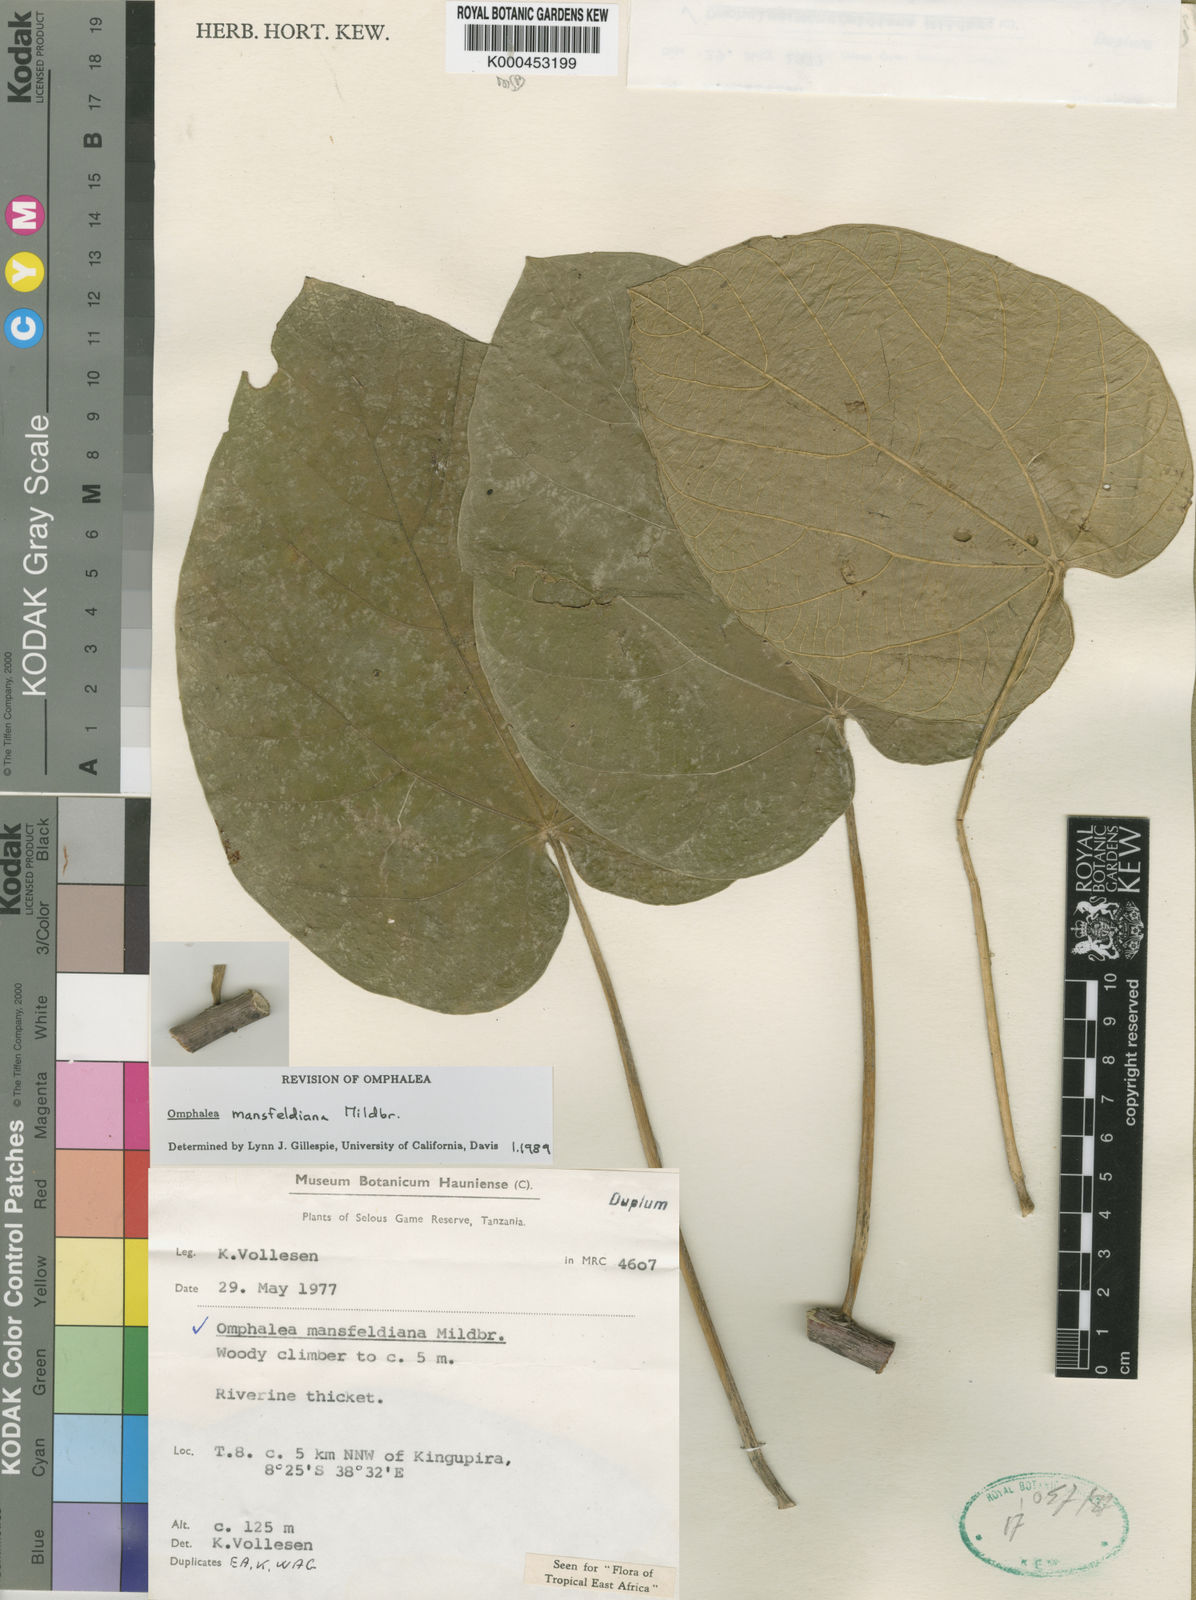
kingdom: Plantae
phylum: Tracheophyta
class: Magnoliopsida
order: Malpighiales
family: Euphorbiaceae
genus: Omphalea
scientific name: Omphalea mansfeldiana
